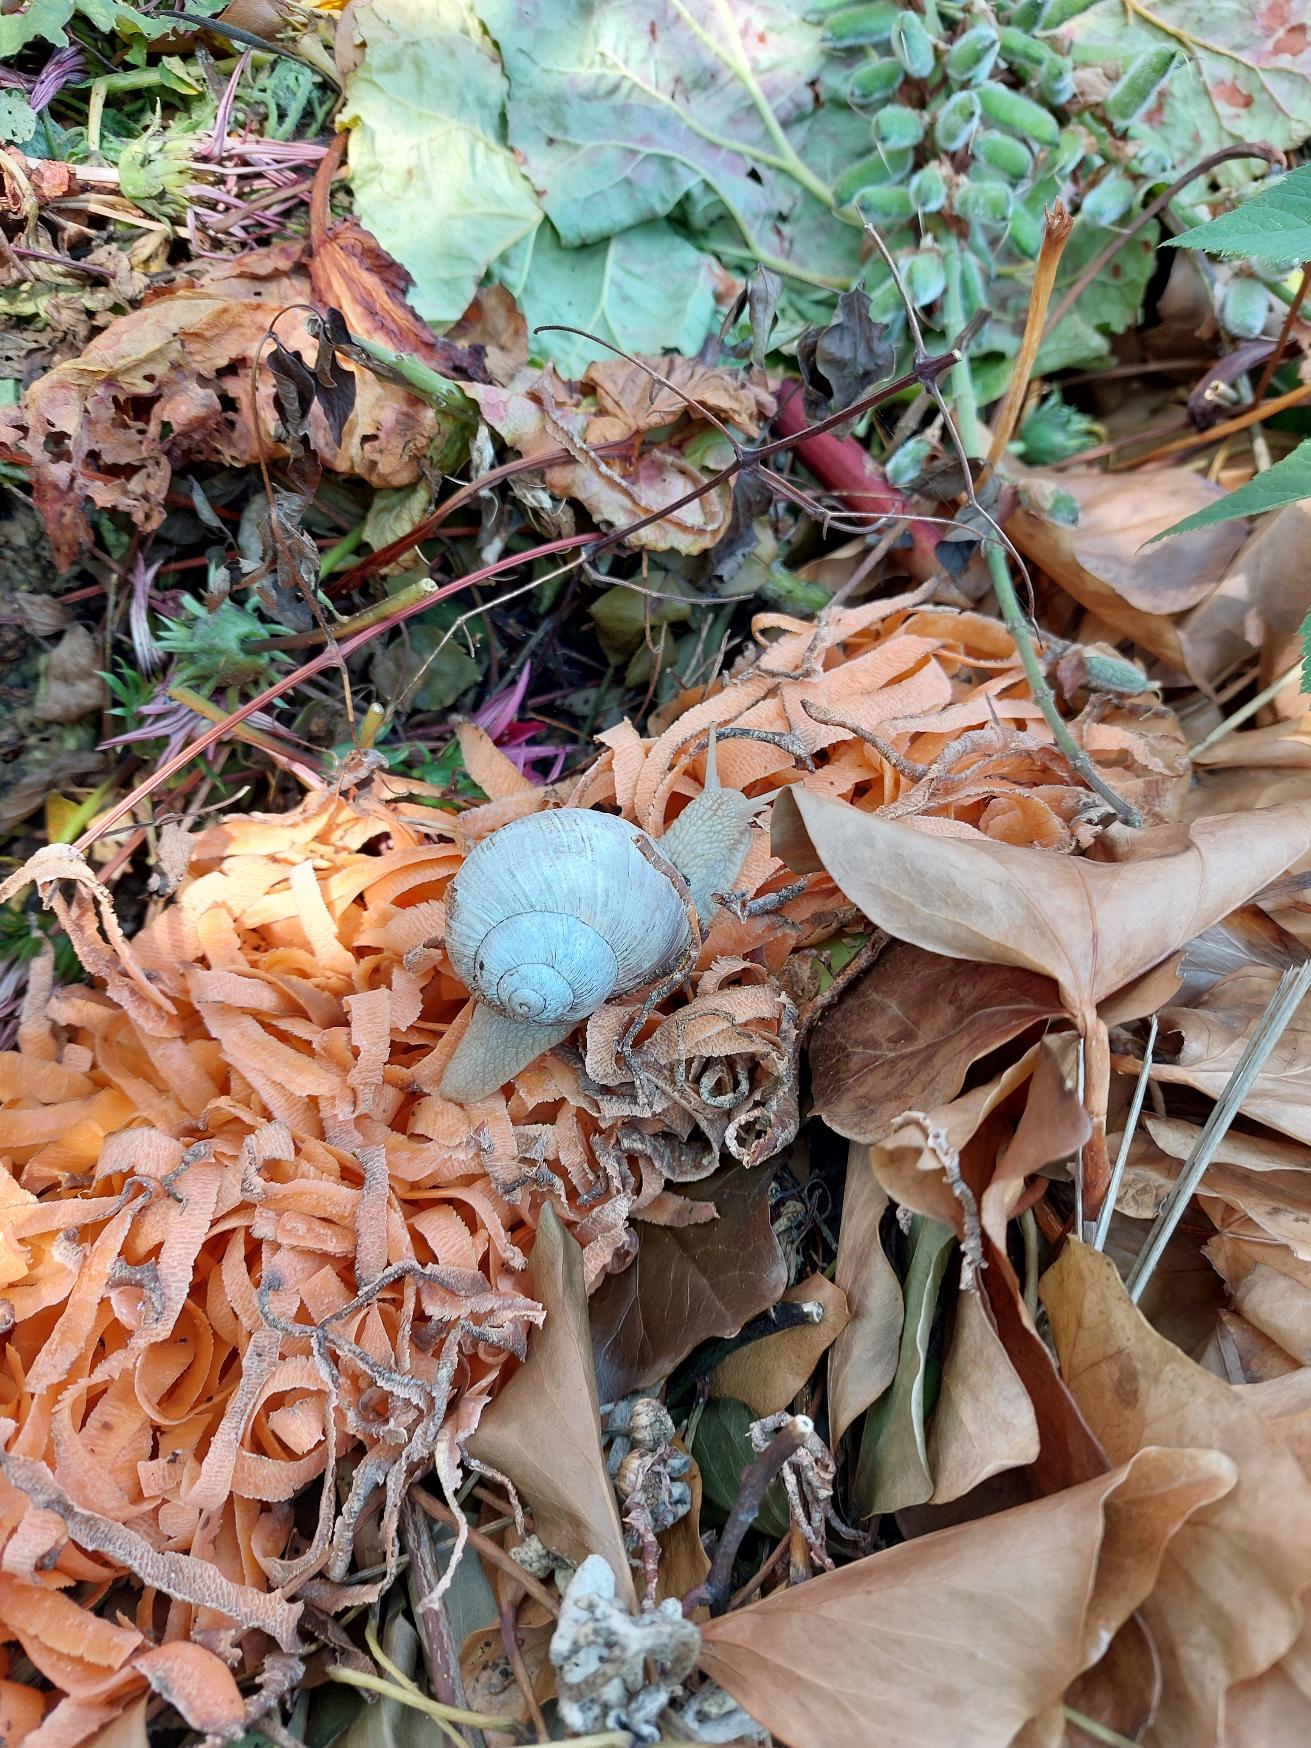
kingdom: Animalia
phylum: Mollusca
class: Gastropoda
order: Stylommatophora
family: Helicidae
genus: Helix
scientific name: Helix pomatia
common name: Vinbjergsnegl
